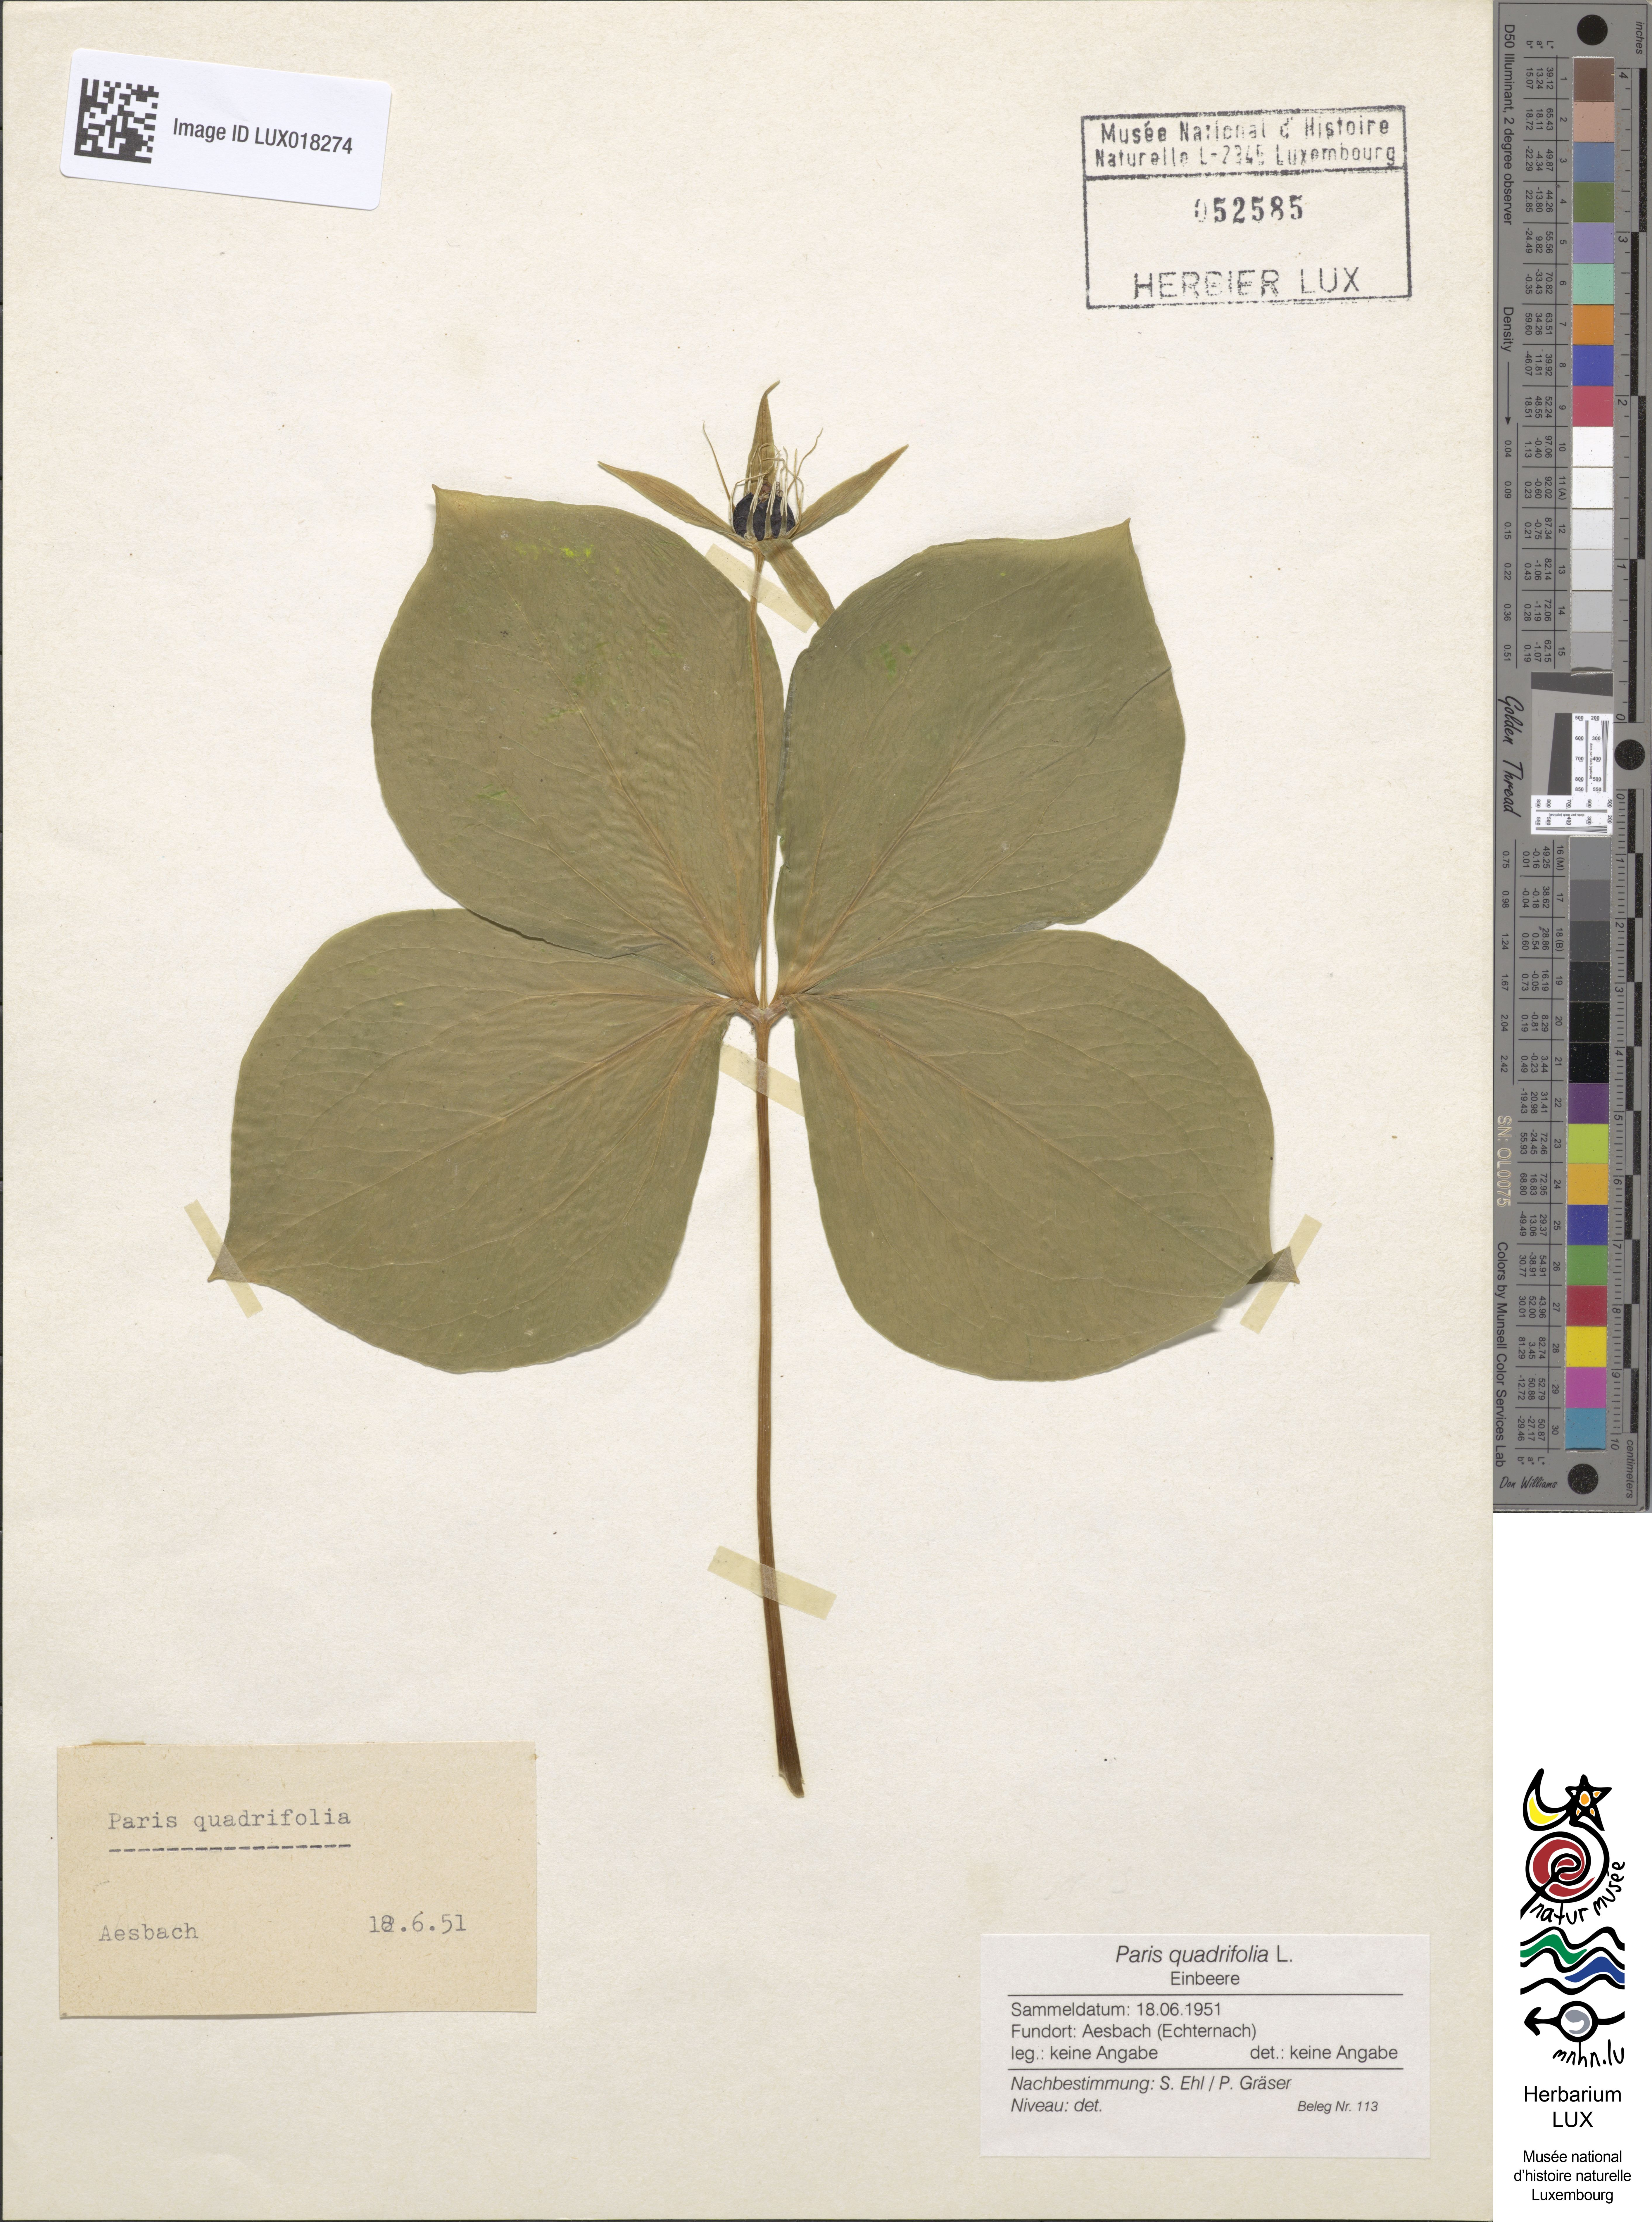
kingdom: Plantae
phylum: Tracheophyta
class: Liliopsida
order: Liliales
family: Melanthiaceae
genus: Paris
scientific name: Paris quadrifolia
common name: Herb-paris
